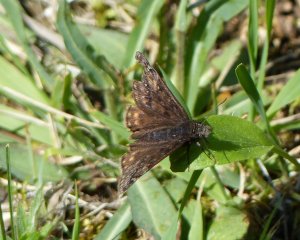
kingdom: Animalia
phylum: Arthropoda
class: Insecta
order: Lepidoptera
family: Hesperiidae
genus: Gesta
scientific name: Gesta
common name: Juvenal's Duskywing
